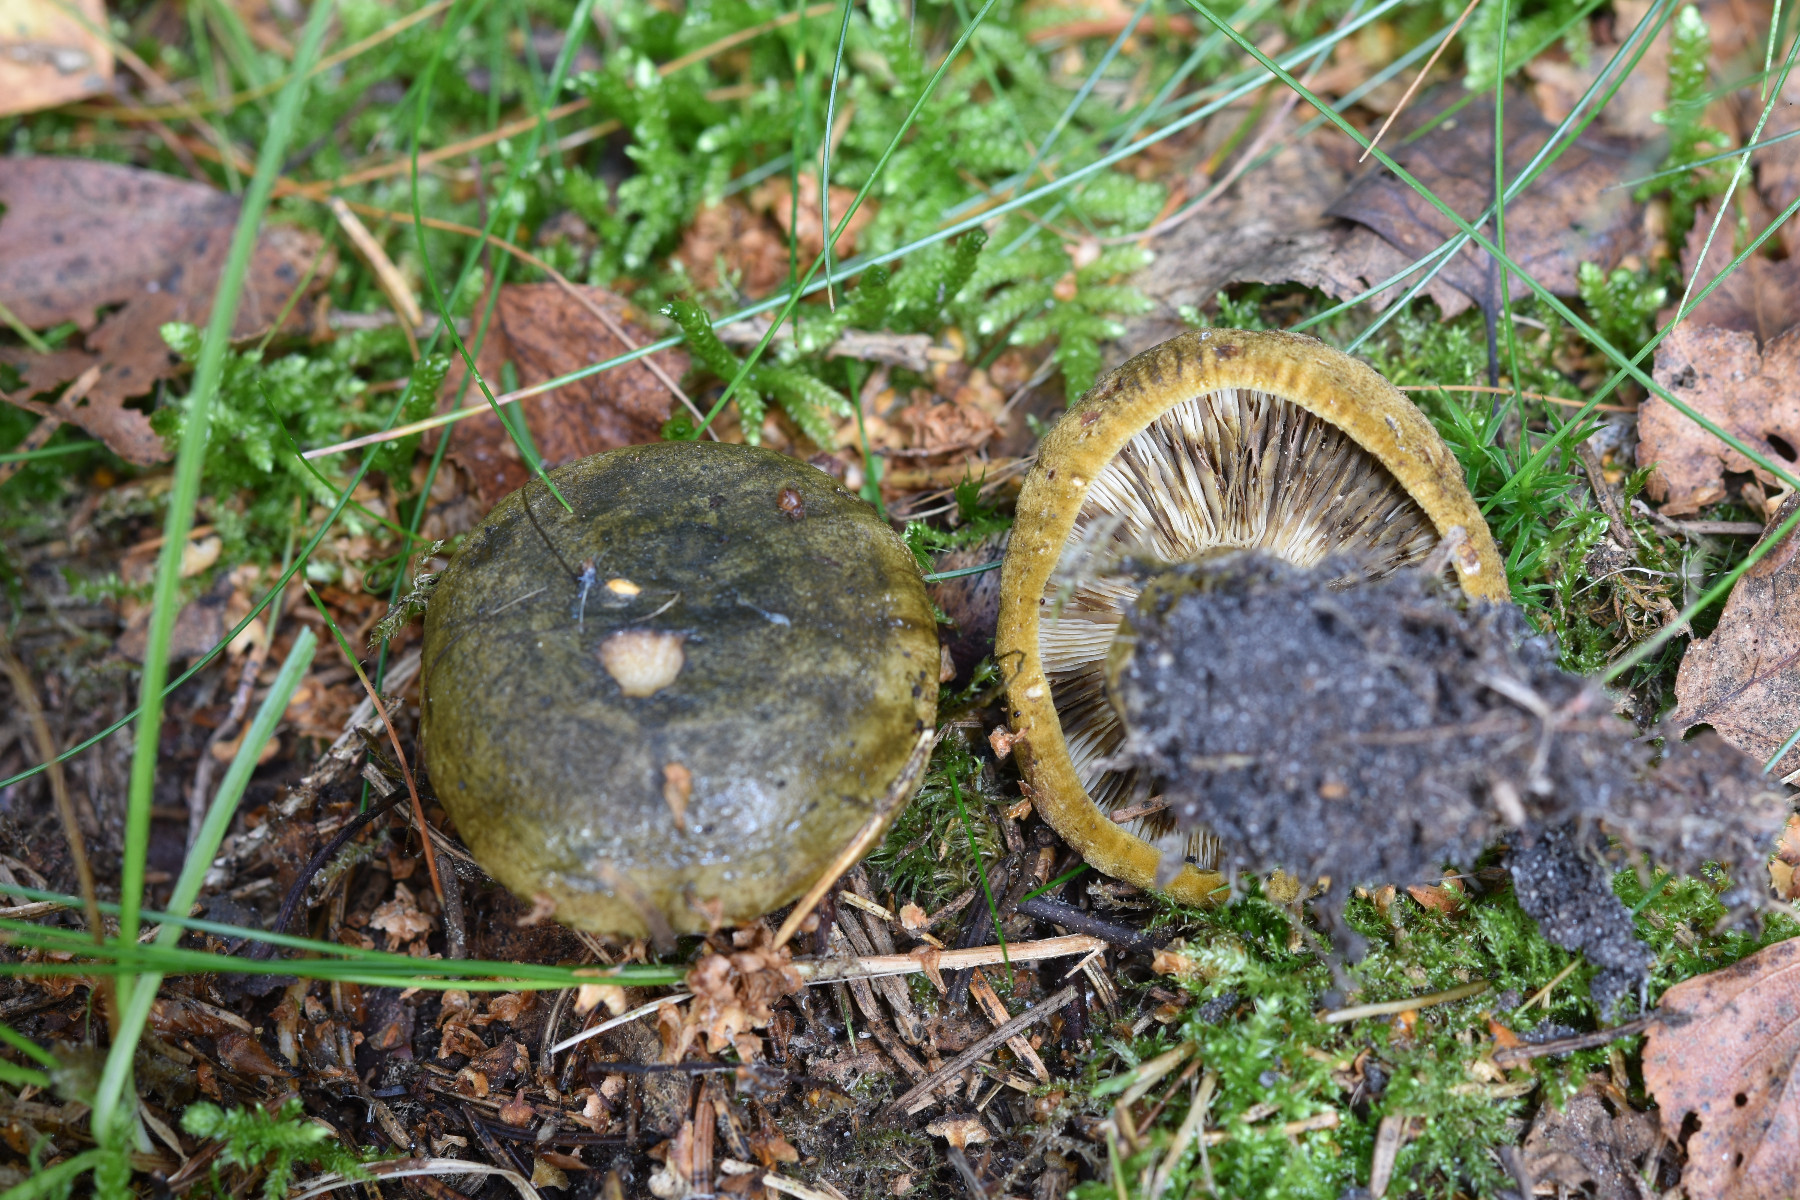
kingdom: Fungi
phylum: Basidiomycota
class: Agaricomycetes
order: Russulales
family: Russulaceae
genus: Lactarius
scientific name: Lactarius necator
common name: manddraber-mælkehat
